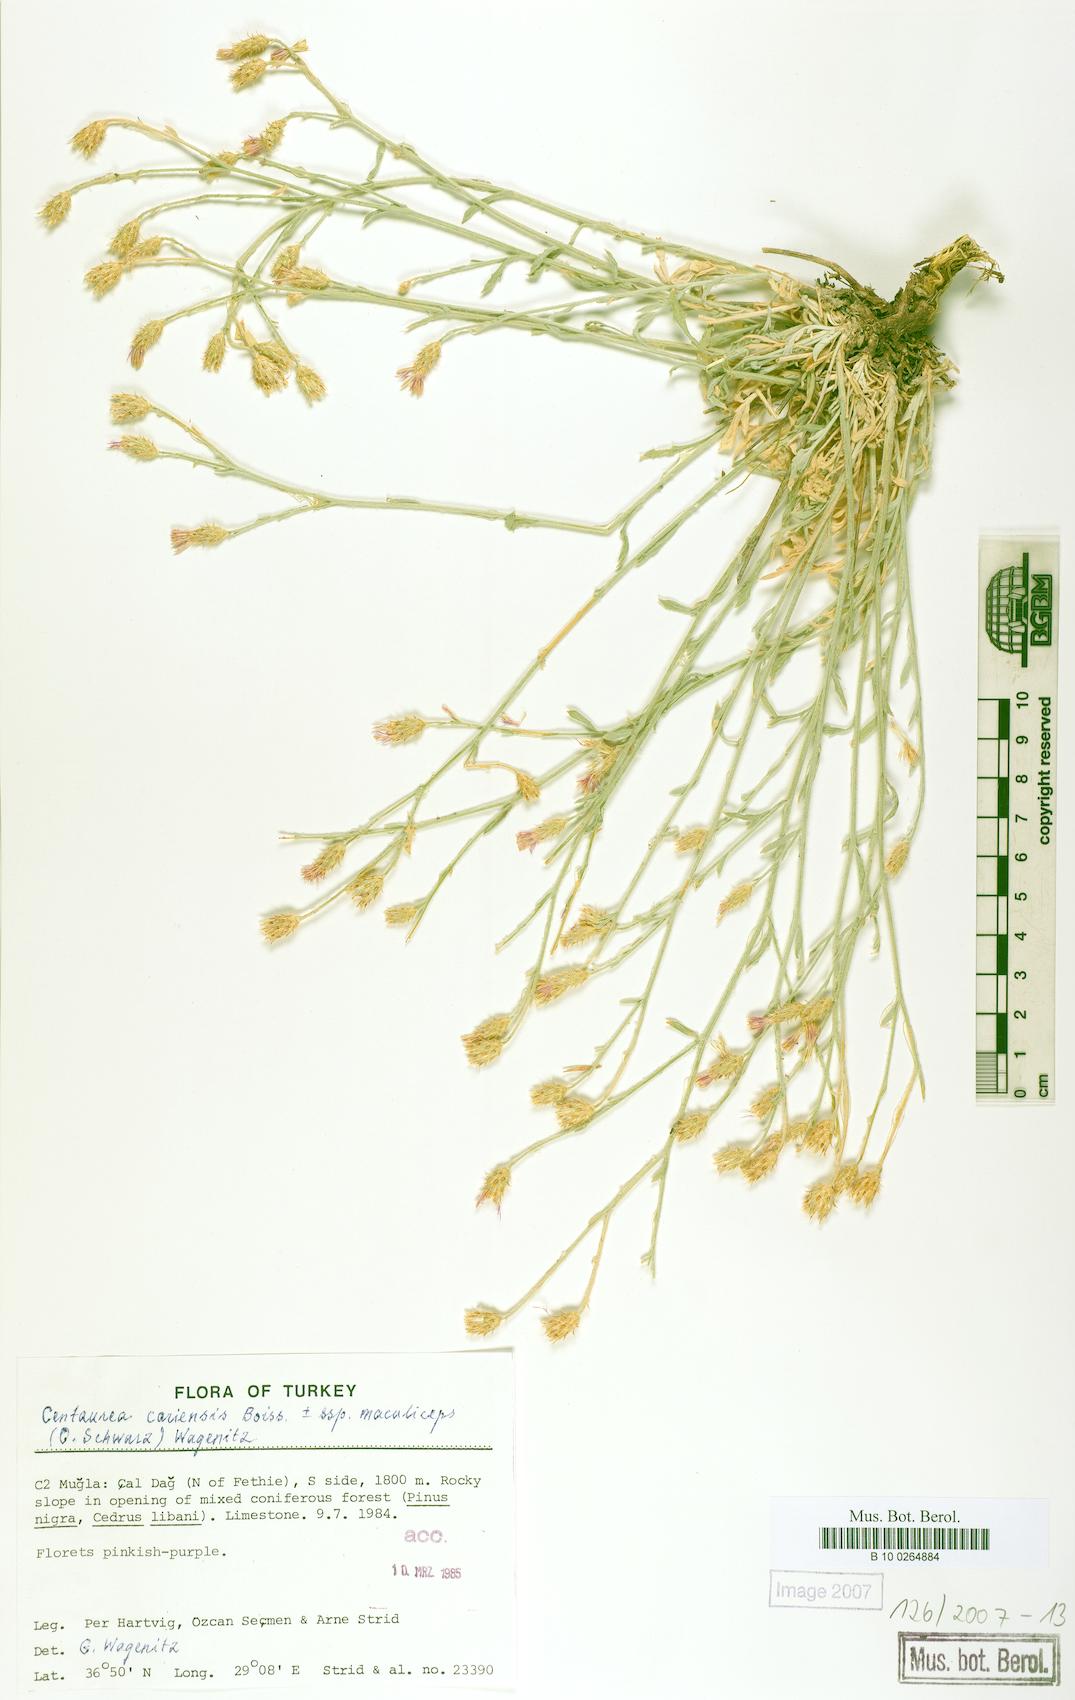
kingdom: Plantae
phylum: Tracheophyta
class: Magnoliopsida
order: Asterales
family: Asteraceae
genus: Centaurea
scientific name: Centaurea cariensis
